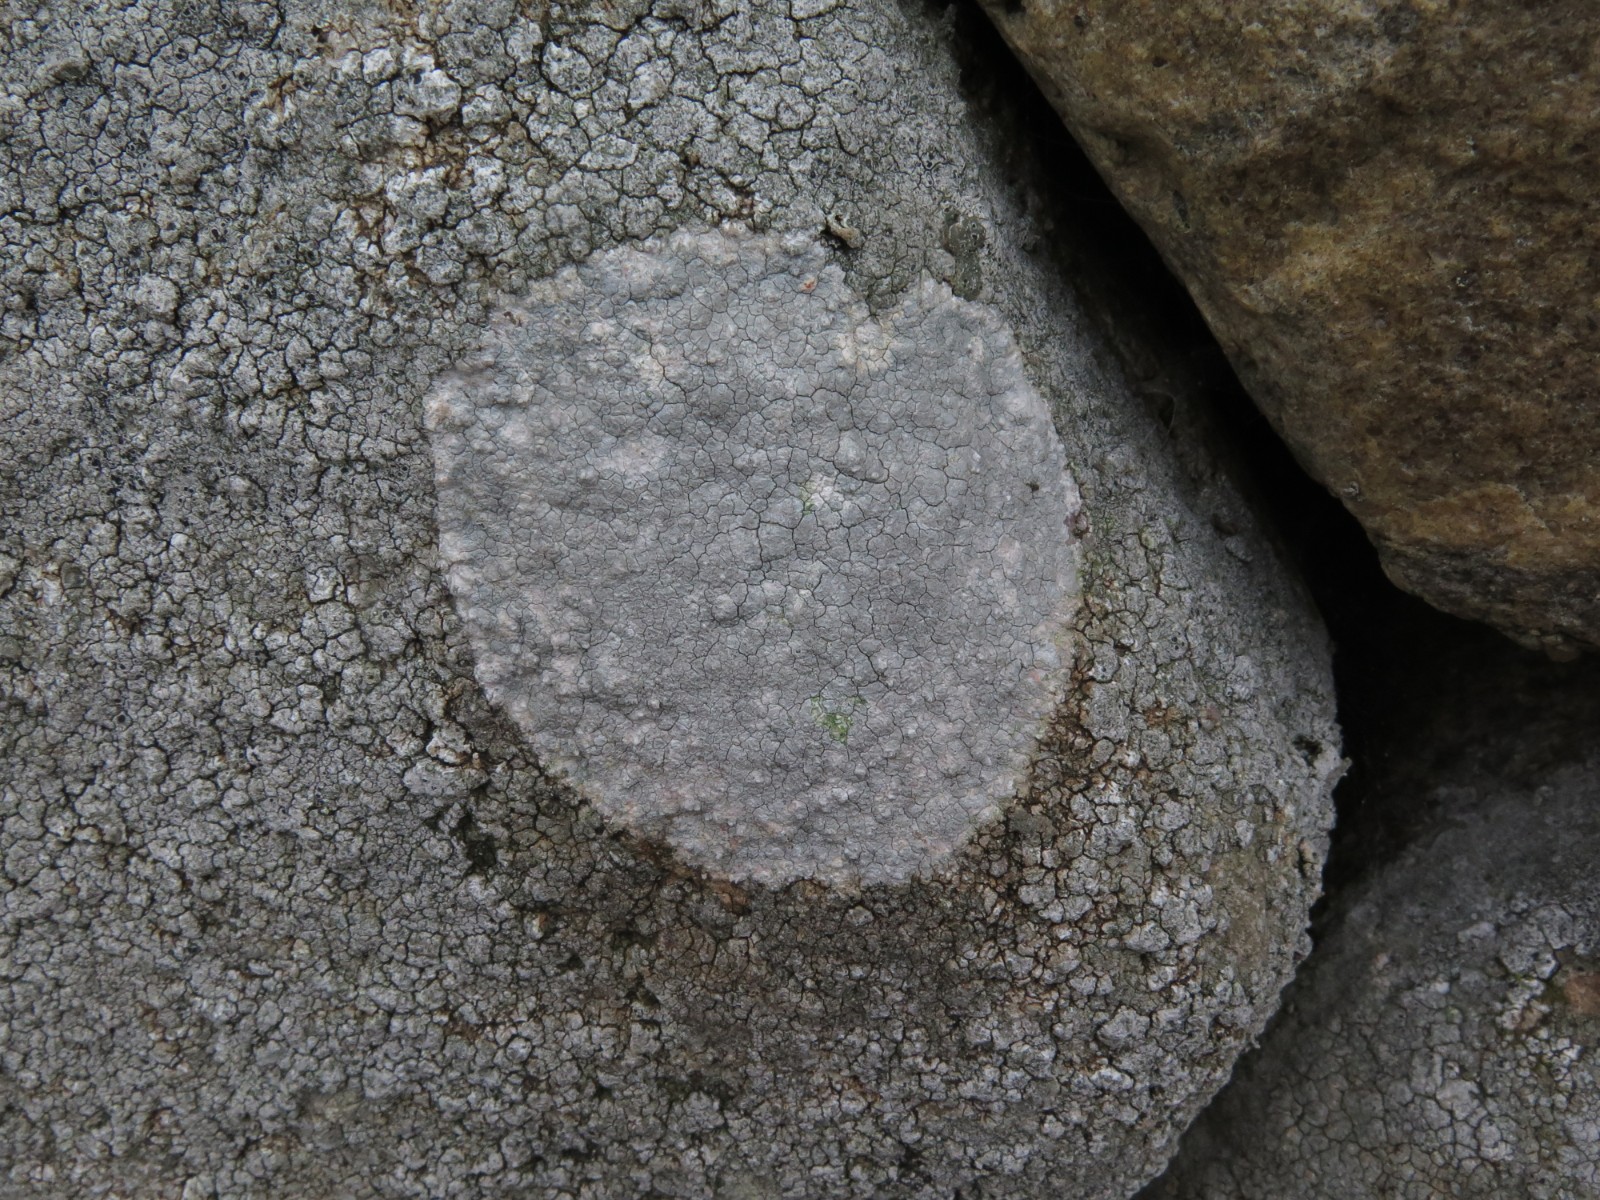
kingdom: Fungi
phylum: Ascomycota
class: Lecanoromycetes
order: Lecanorales
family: Lecanoraceae
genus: Glaucomaria
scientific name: Glaucomaria rupicola
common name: stengærde-kantskivelav
